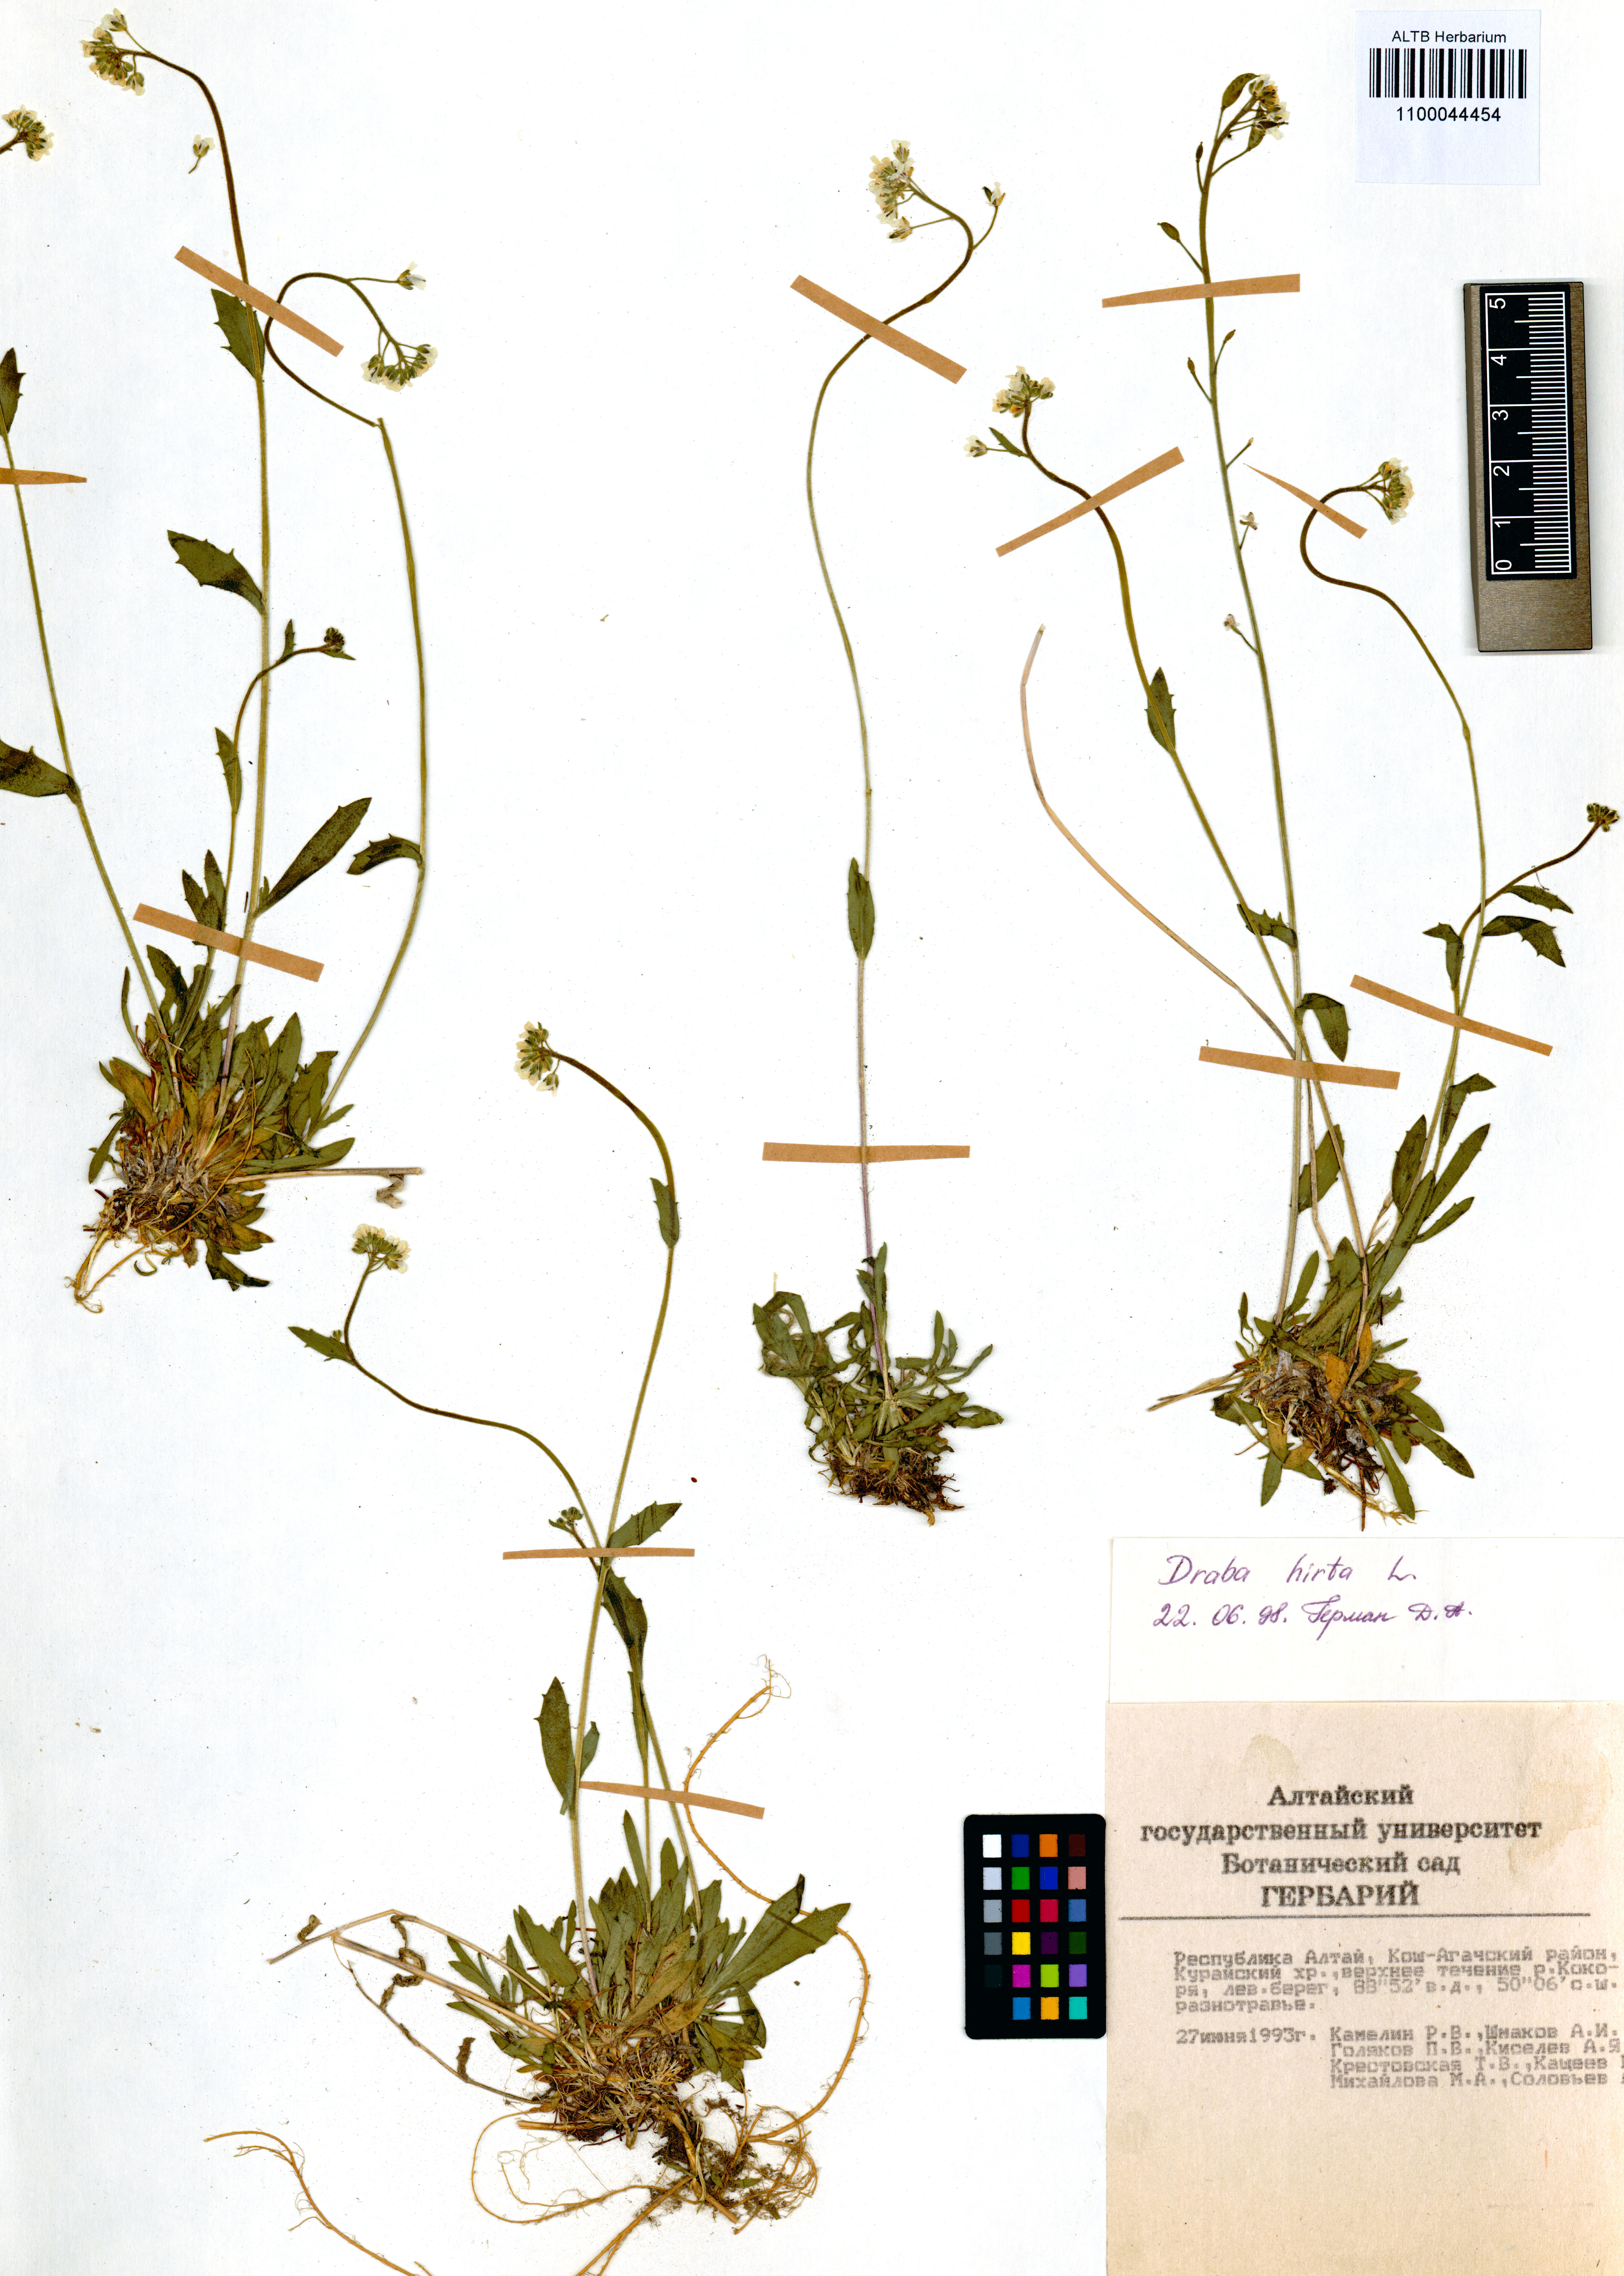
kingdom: Plantae
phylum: Tracheophyta
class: Magnoliopsida
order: Brassicales
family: Brassicaceae
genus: Draba
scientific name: Draba glabella
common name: Glaucous draba
